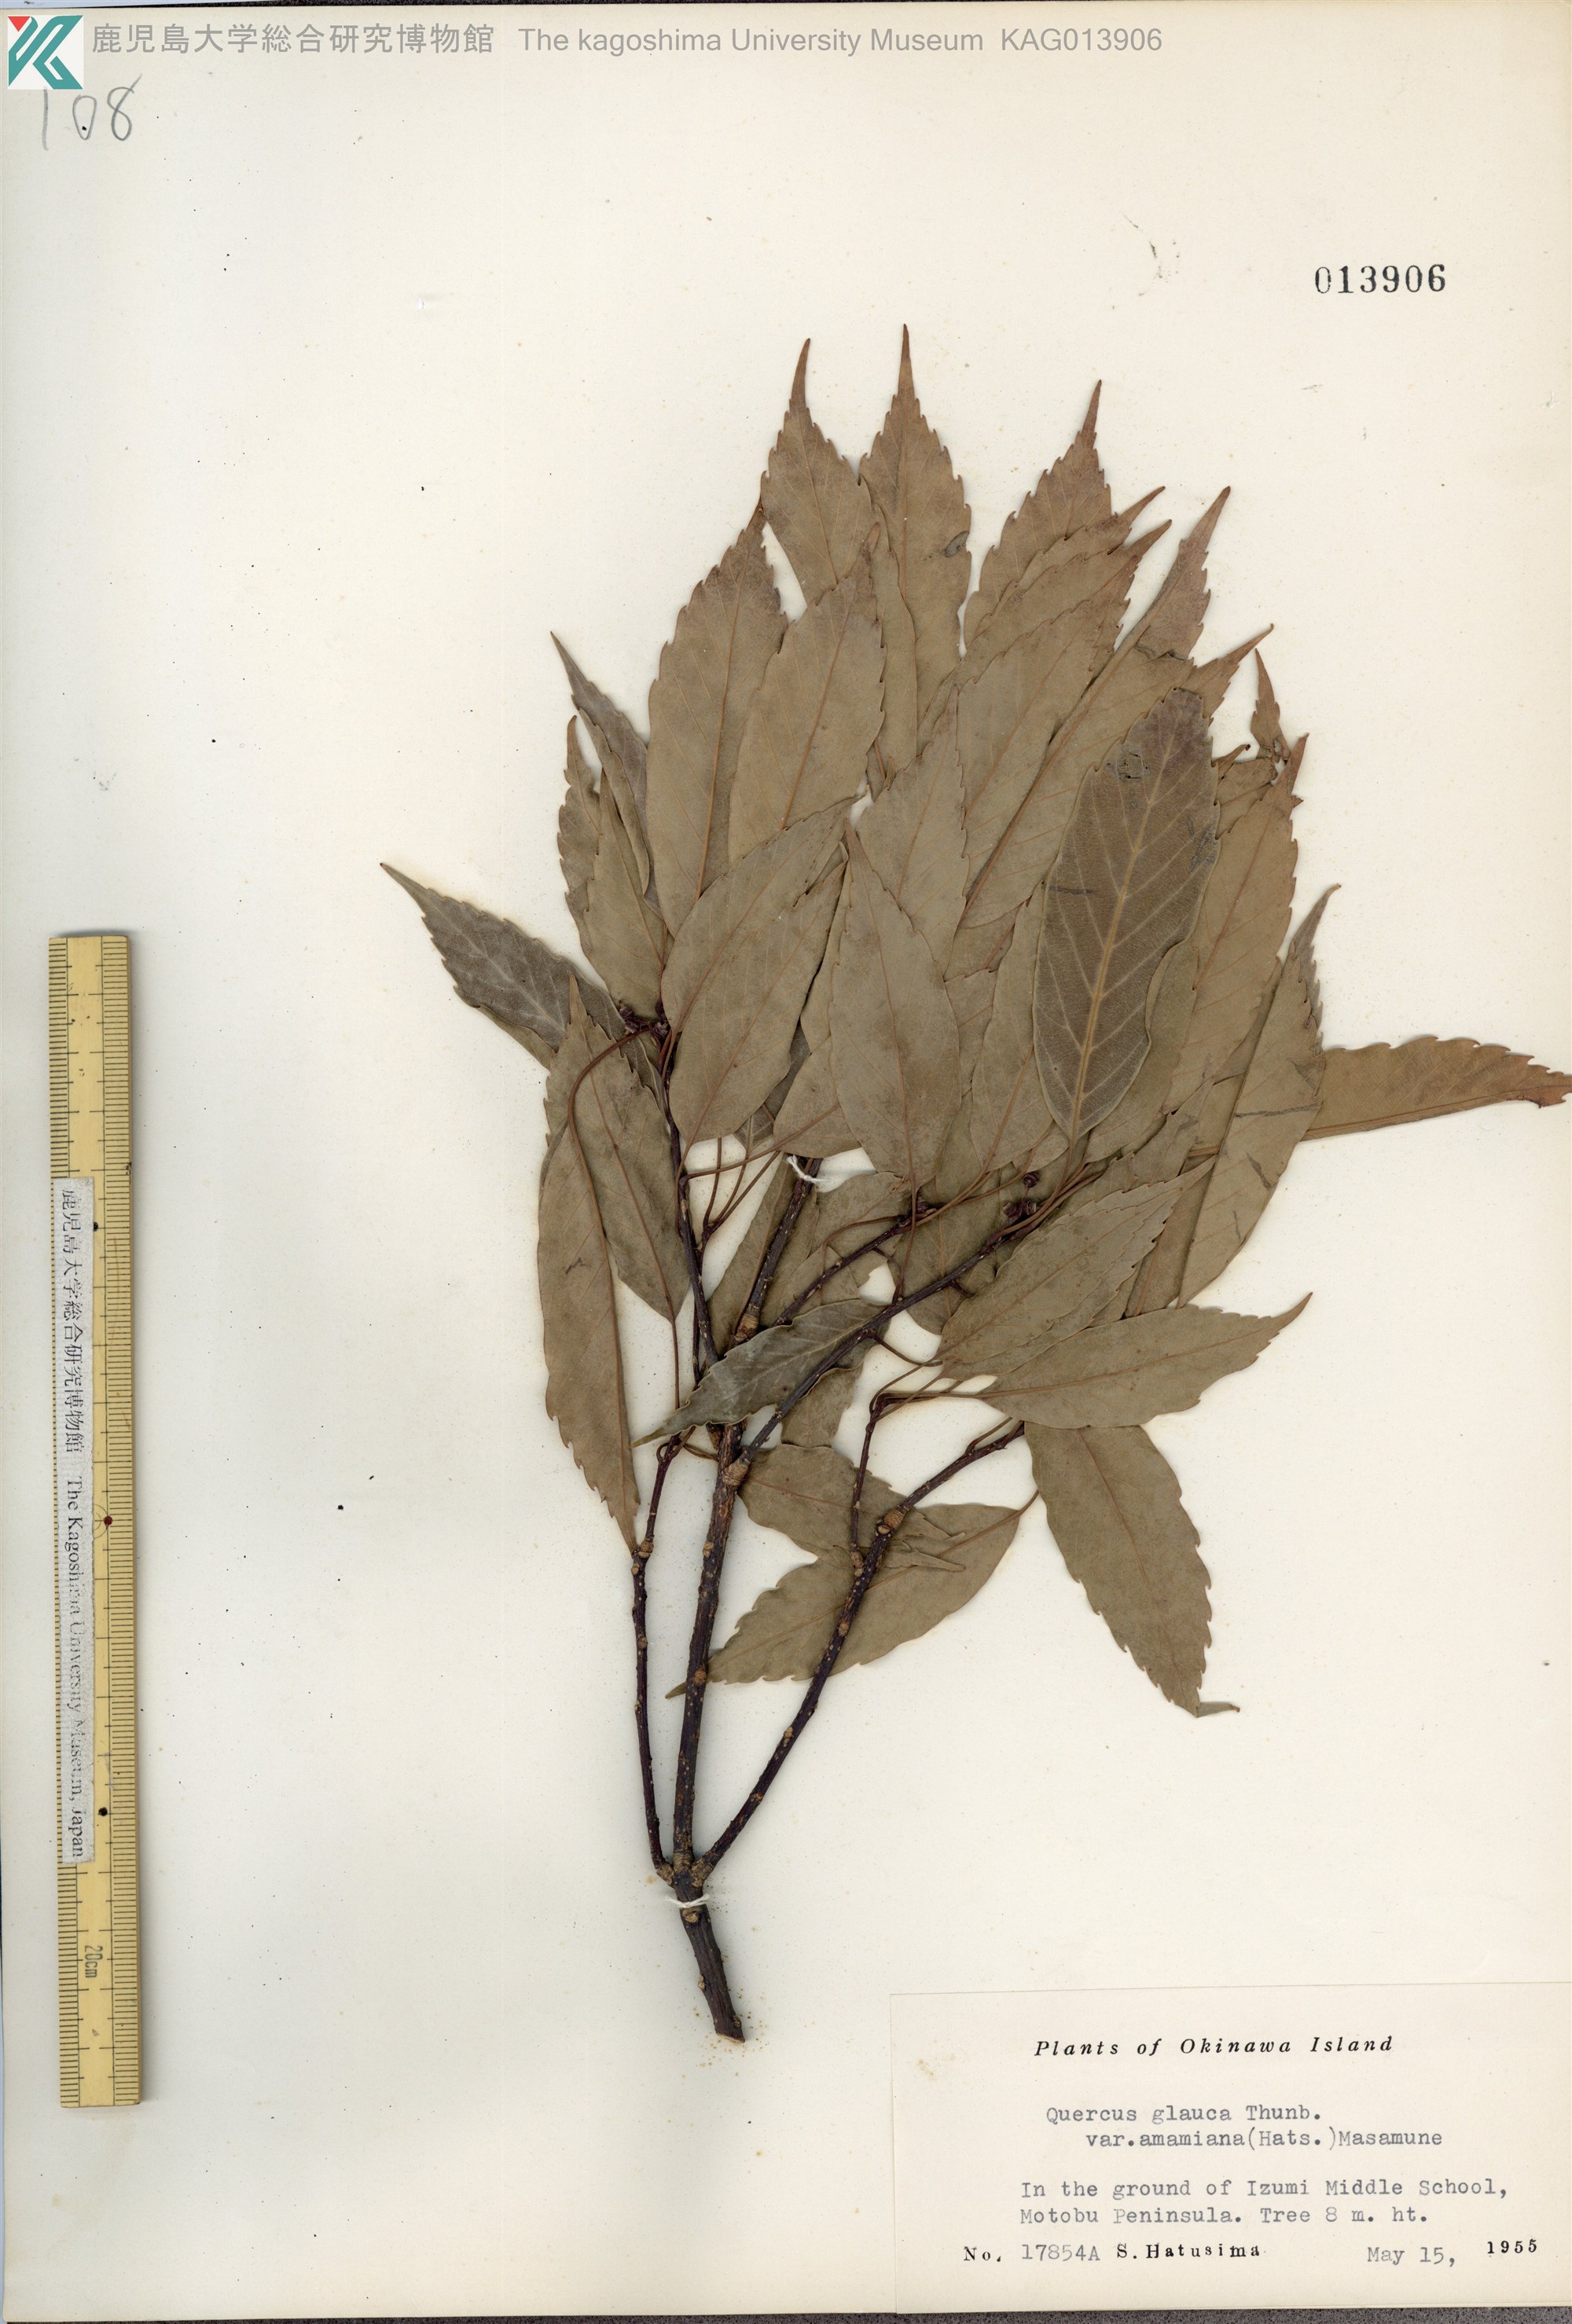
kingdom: Plantae
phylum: Tracheophyta
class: Magnoliopsida
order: Fagales
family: Fagaceae
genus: Quercus
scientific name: Quercus glauca
